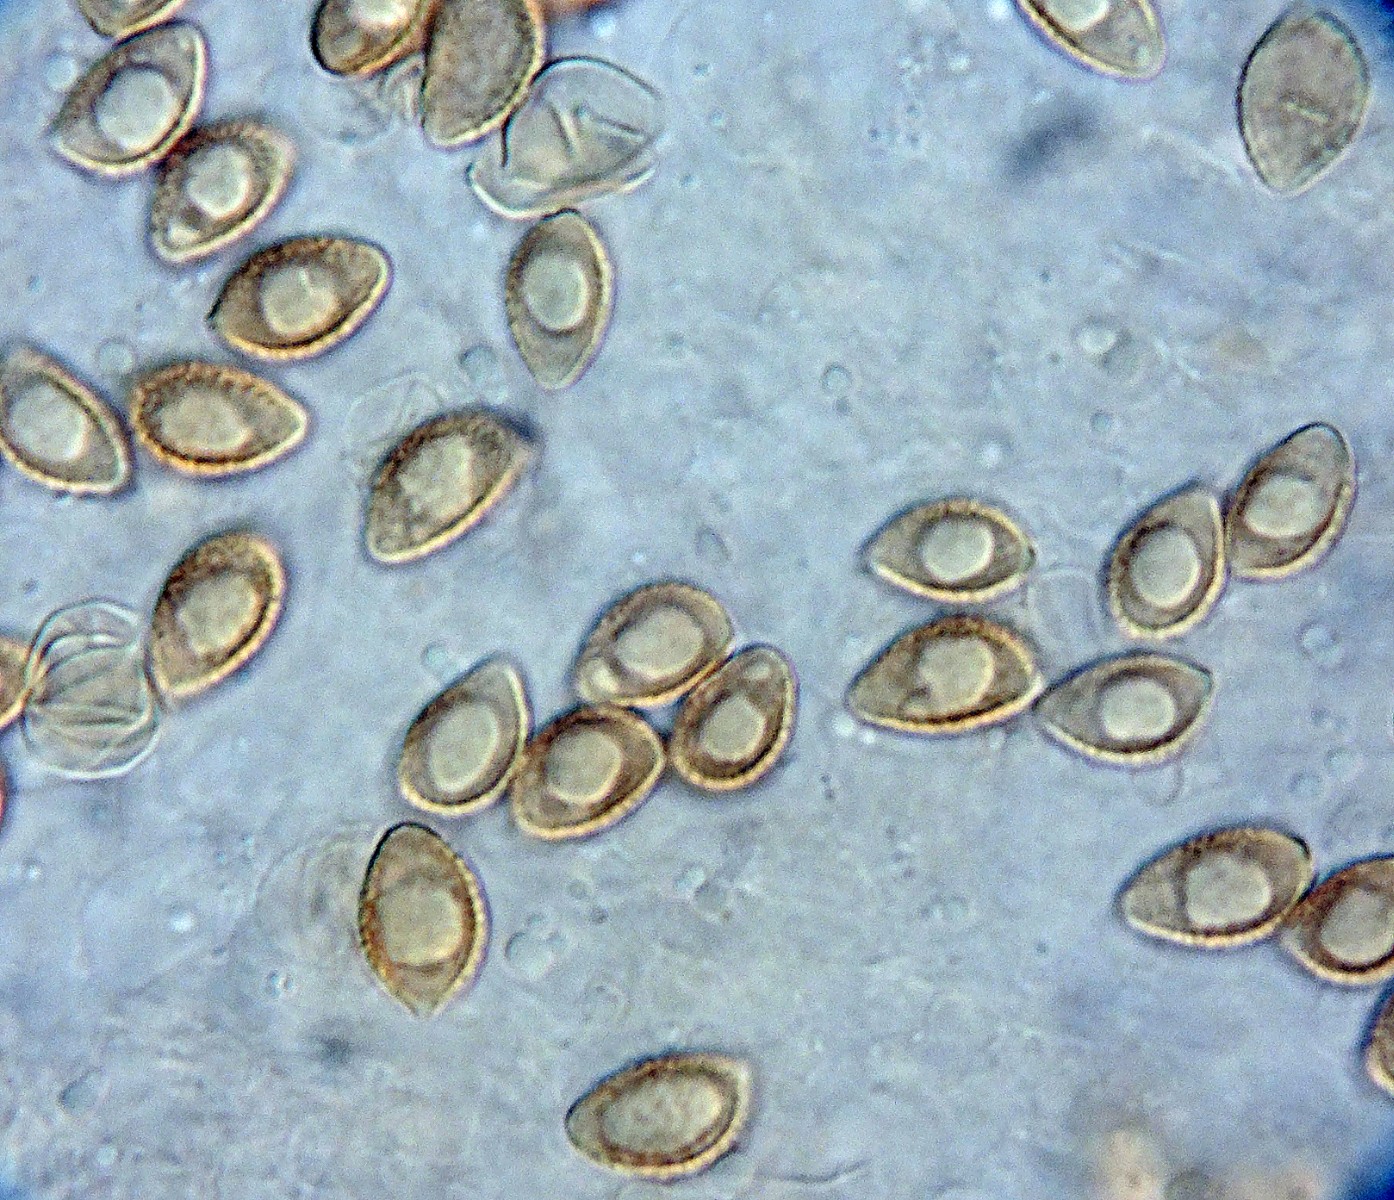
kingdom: Fungi
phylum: Basidiomycota
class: Agaricomycetes
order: Agaricales
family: Hymenogastraceae
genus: Hebeloma
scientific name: Hebeloma leucosarx
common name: højstokket tåreblad
